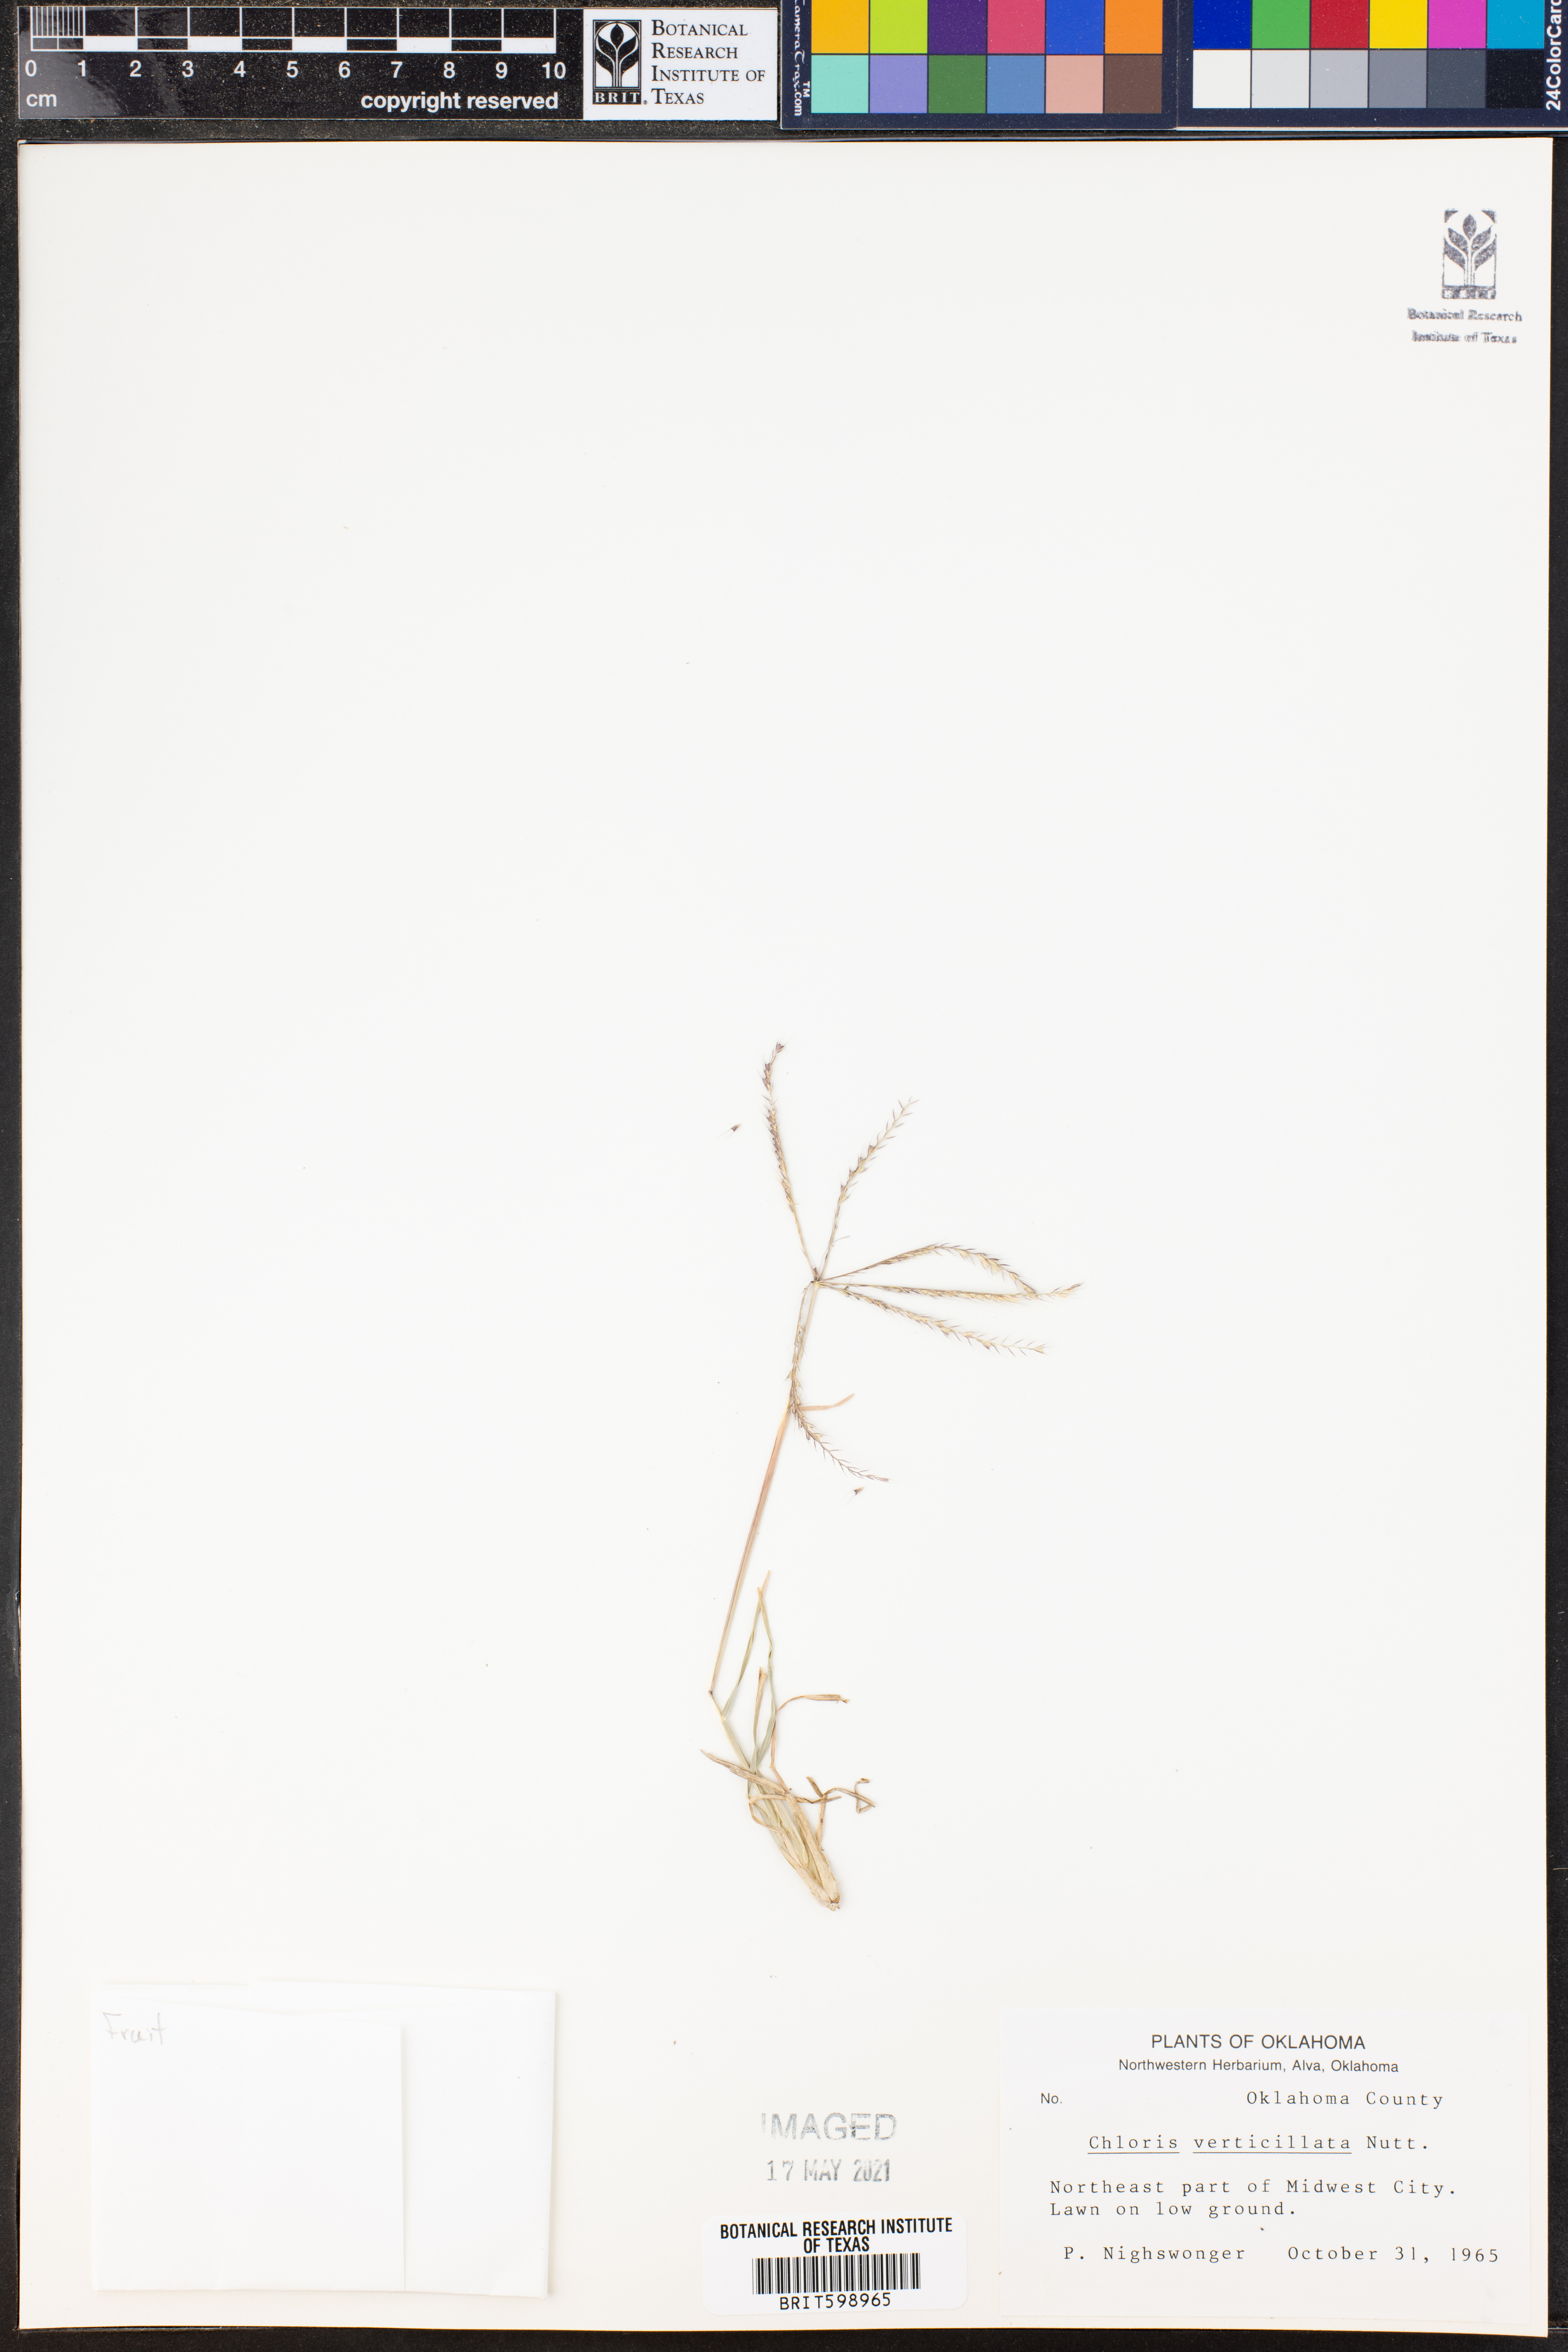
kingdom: Plantae
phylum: Tracheophyta
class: Liliopsida
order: Poales
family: Poaceae
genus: Chloris
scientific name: Chloris verticillata
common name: Tumble windmill grass
